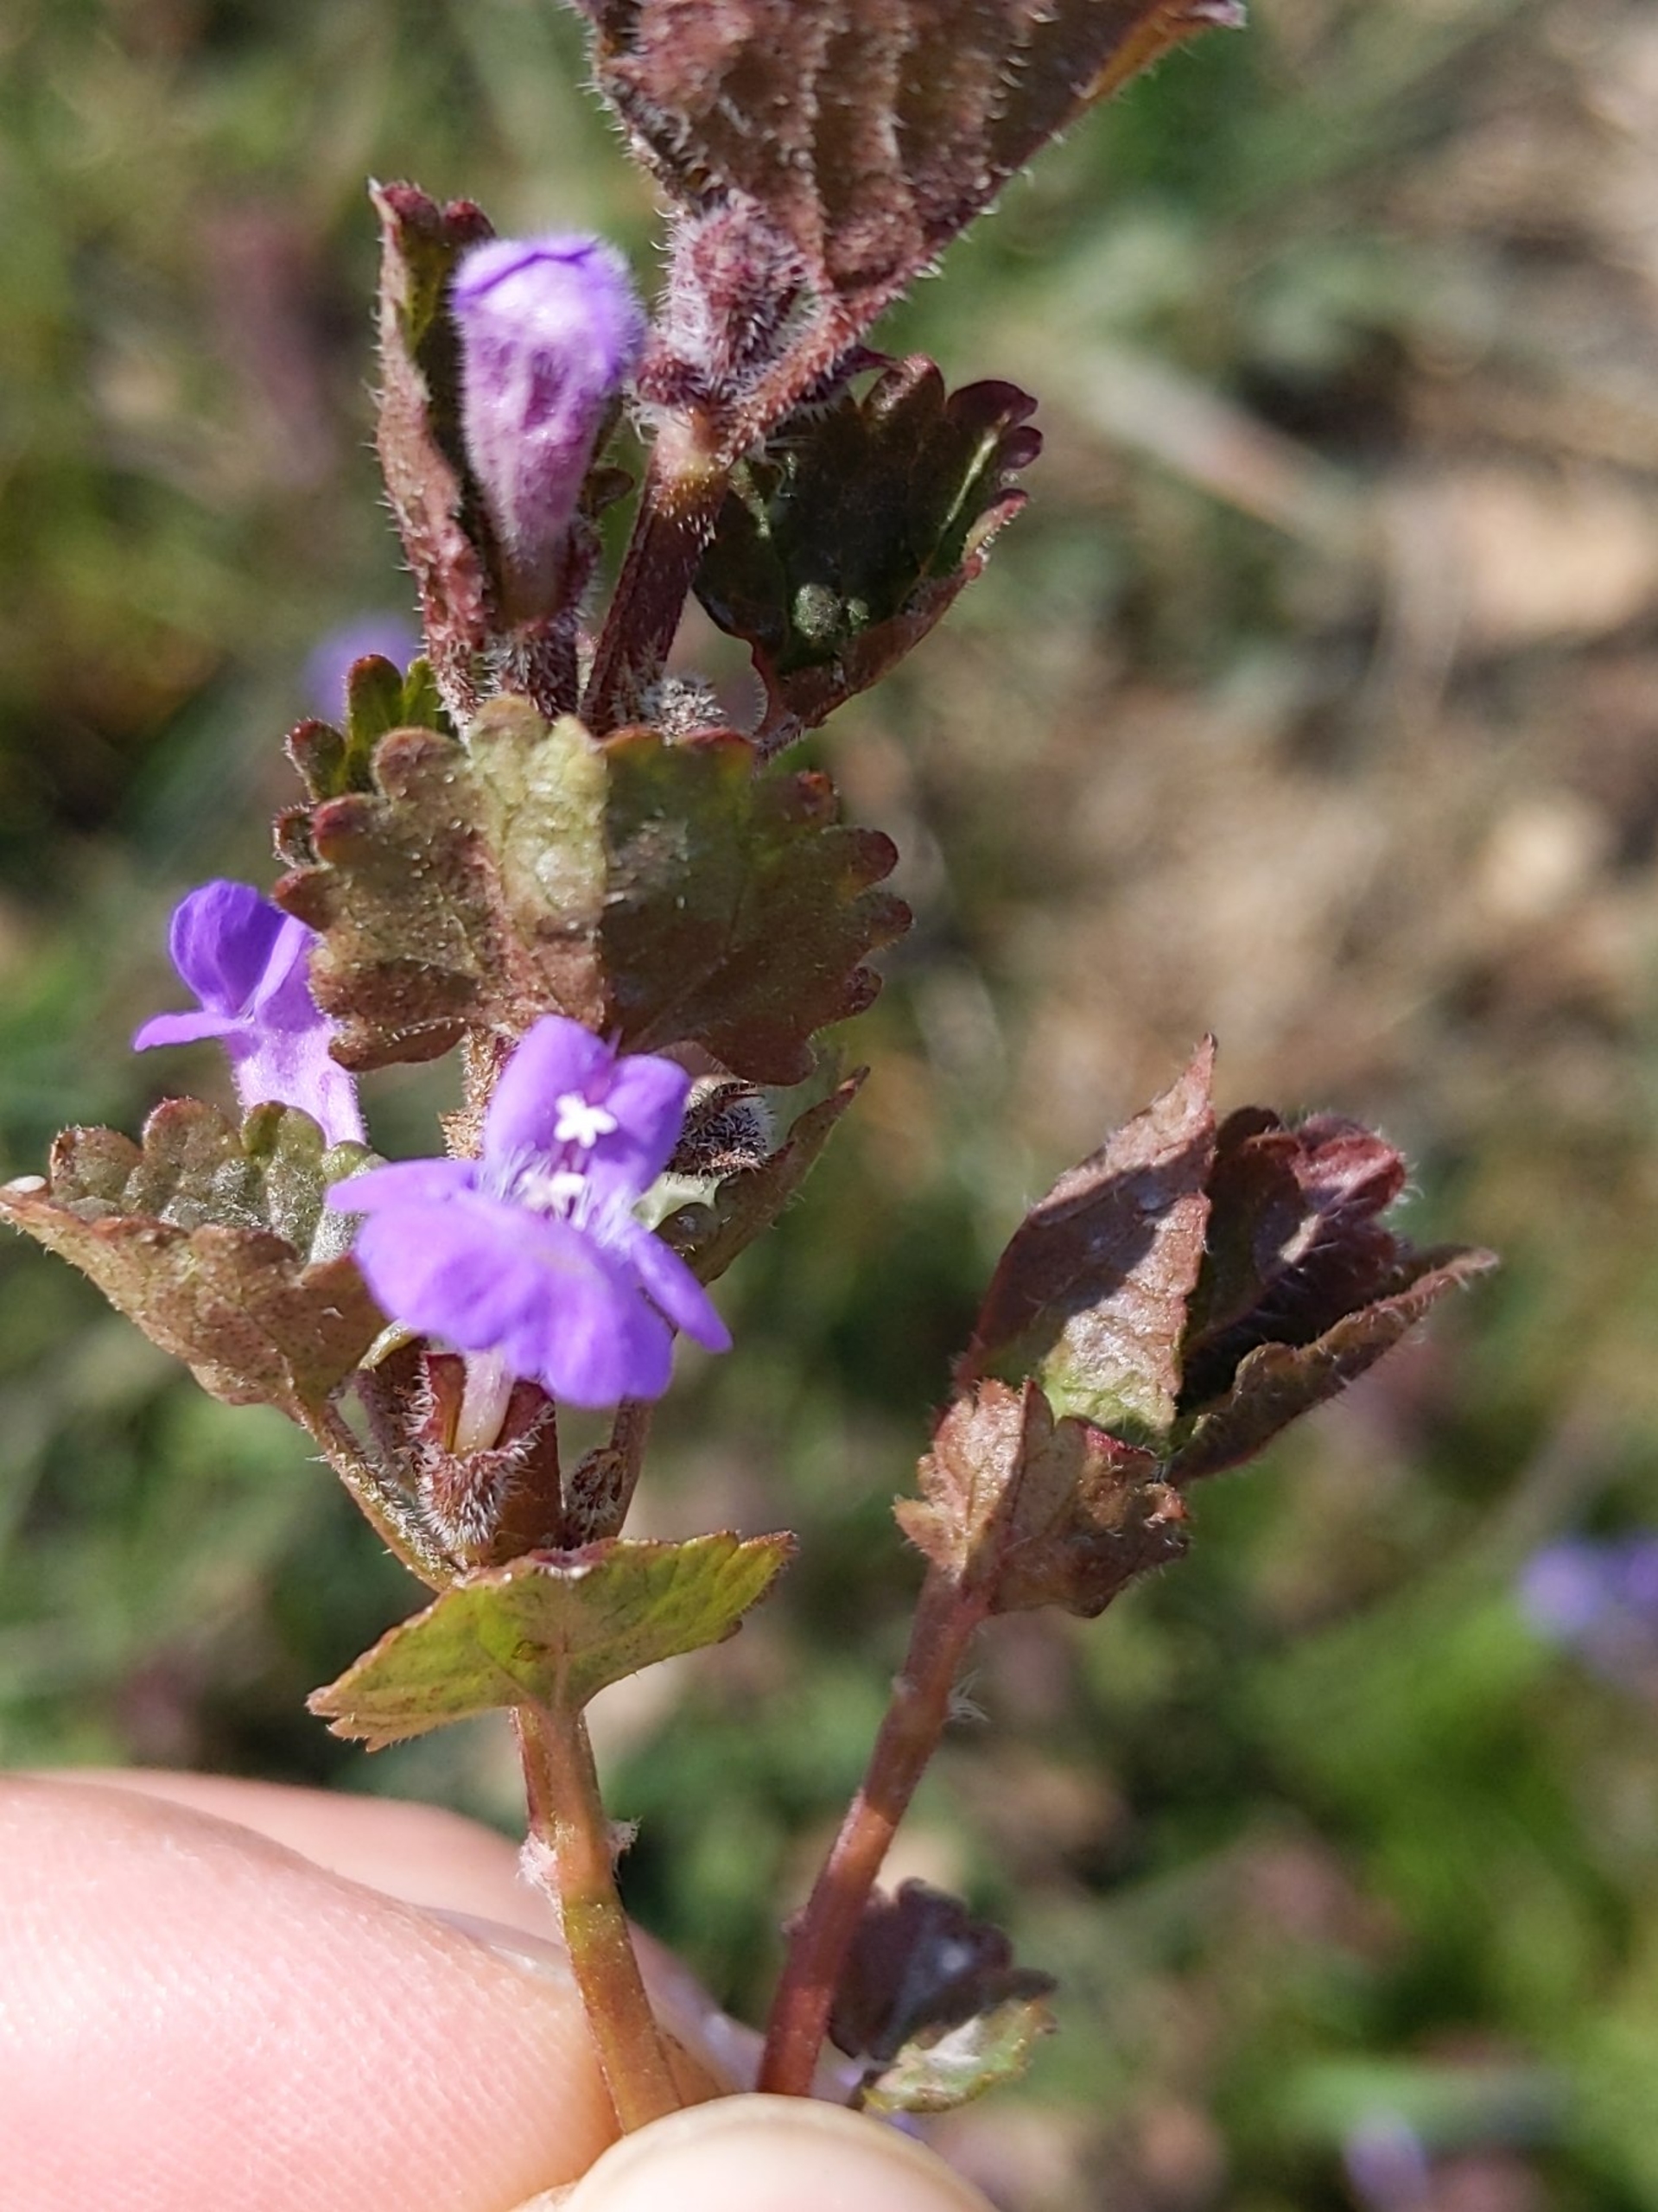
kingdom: Plantae
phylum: Tracheophyta
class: Magnoliopsida
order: Lamiales
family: Lamiaceae
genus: Glechoma
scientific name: Glechoma hederacea
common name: Korsknap
